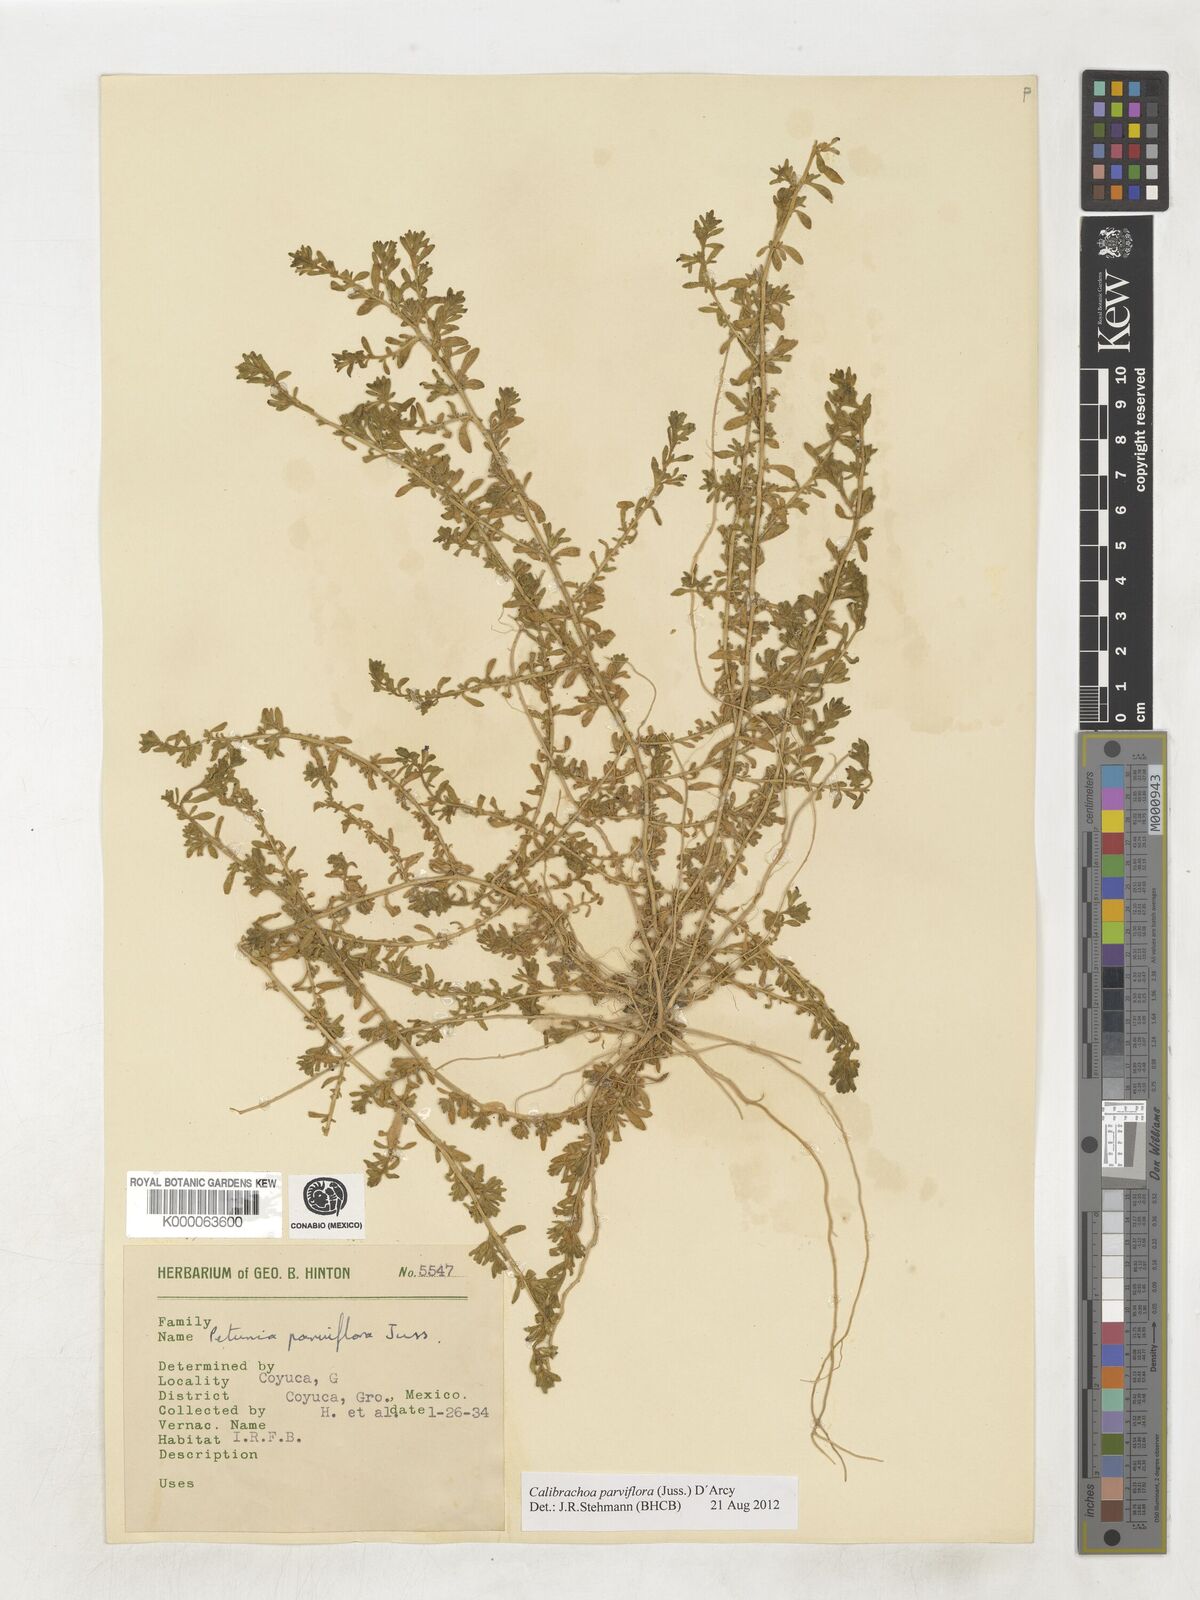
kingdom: Plantae
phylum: Tracheophyta
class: Magnoliopsida
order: Solanales
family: Solanaceae
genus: Calibrachoa
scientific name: Calibrachoa parviflora
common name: Seaside petunia
